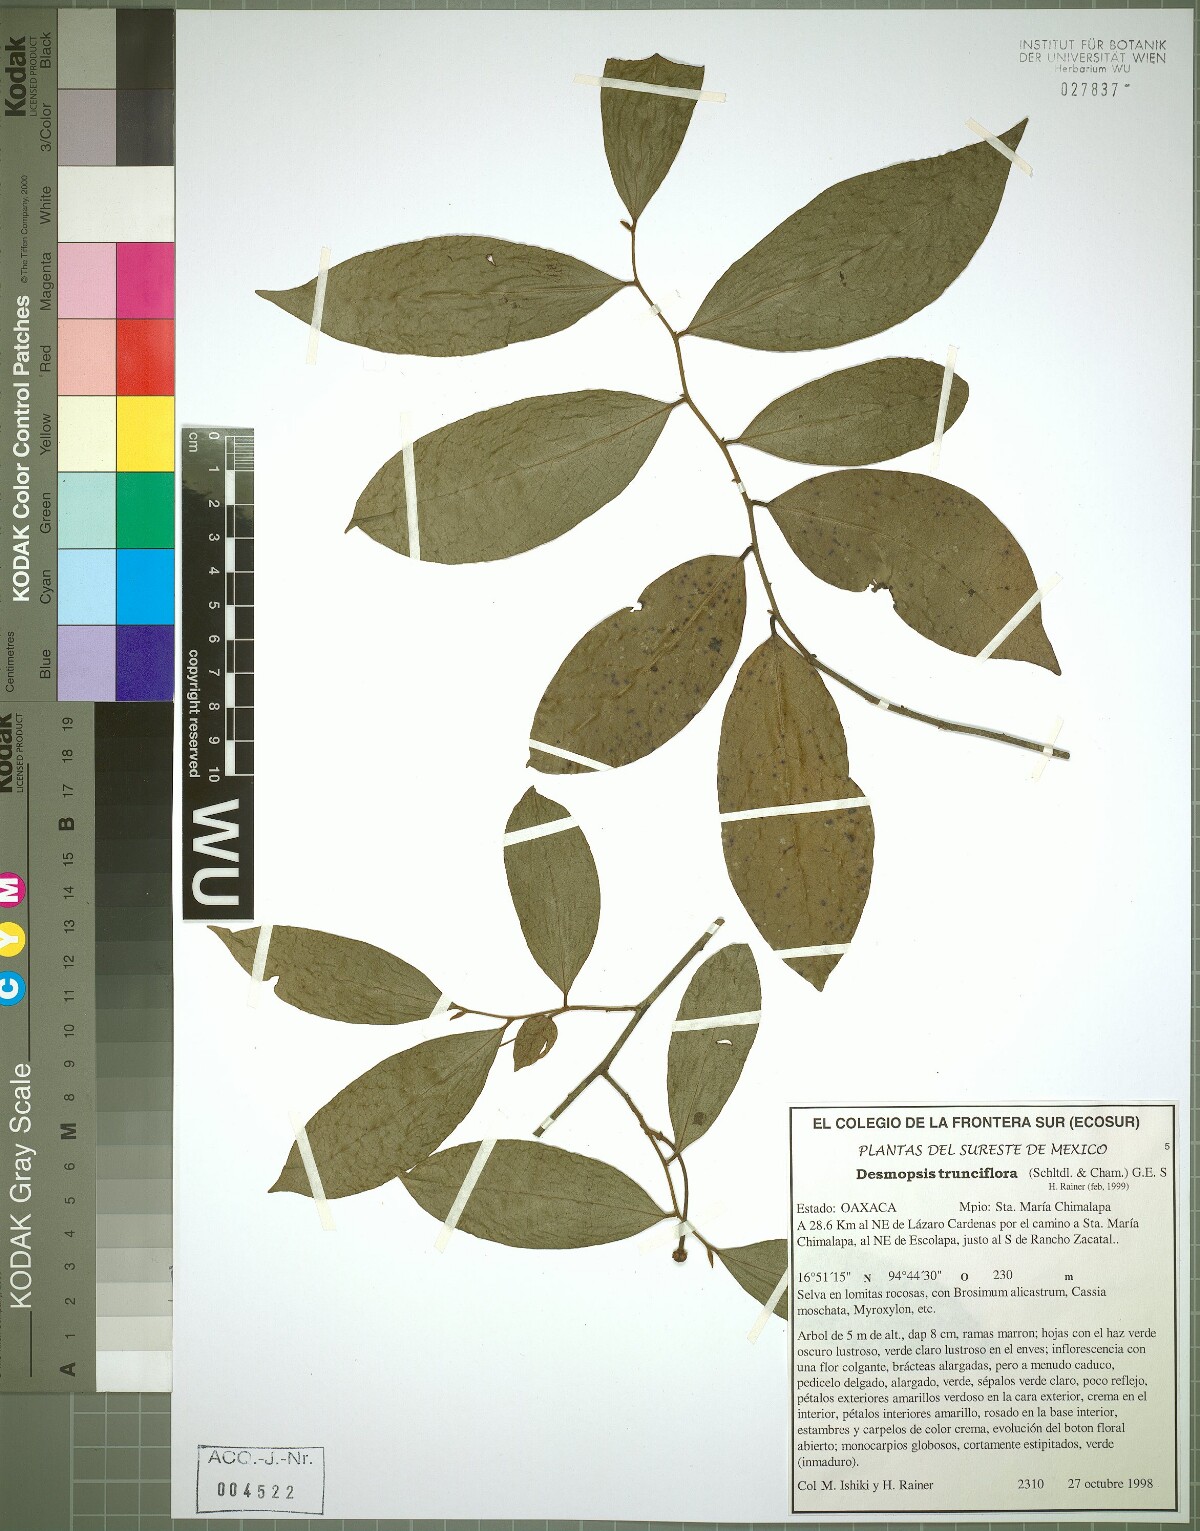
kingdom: Plantae
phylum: Tracheophyta
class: Magnoliopsida
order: Magnoliales
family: Annonaceae
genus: Desmopsis
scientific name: Desmopsis trunciflora
